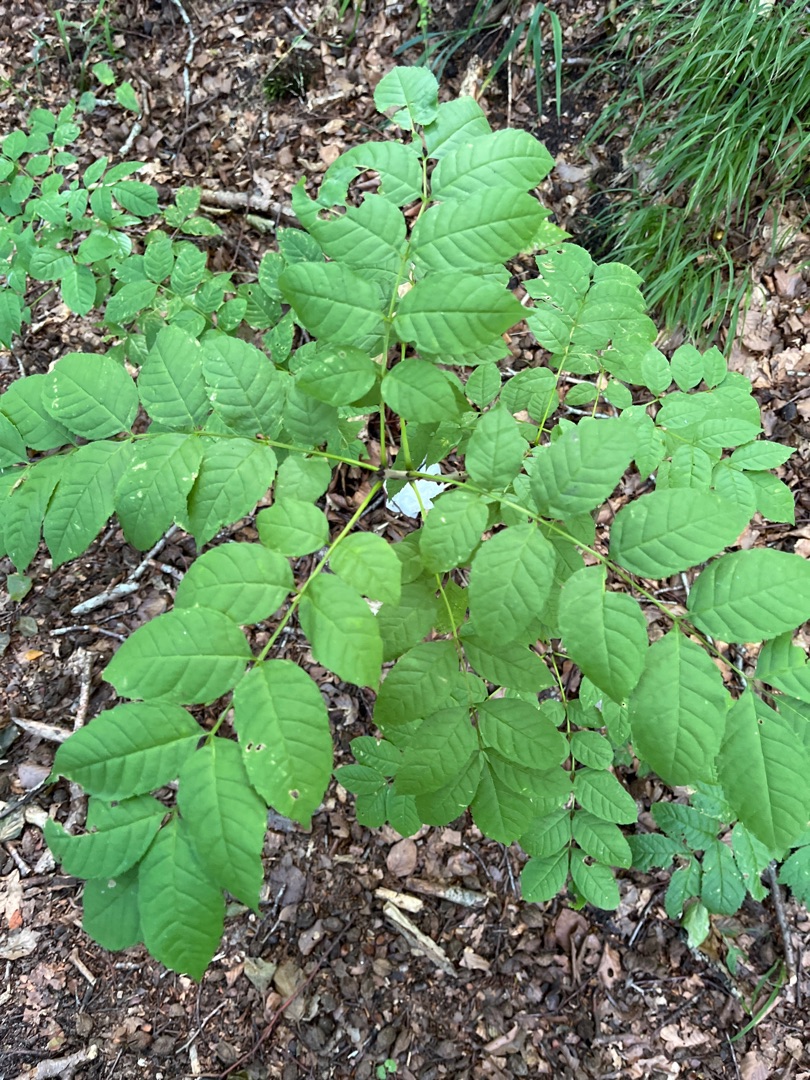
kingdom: Plantae
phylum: Tracheophyta
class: Magnoliopsida
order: Lamiales
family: Oleaceae
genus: Fraxinus
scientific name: Fraxinus excelsior
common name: Ask
